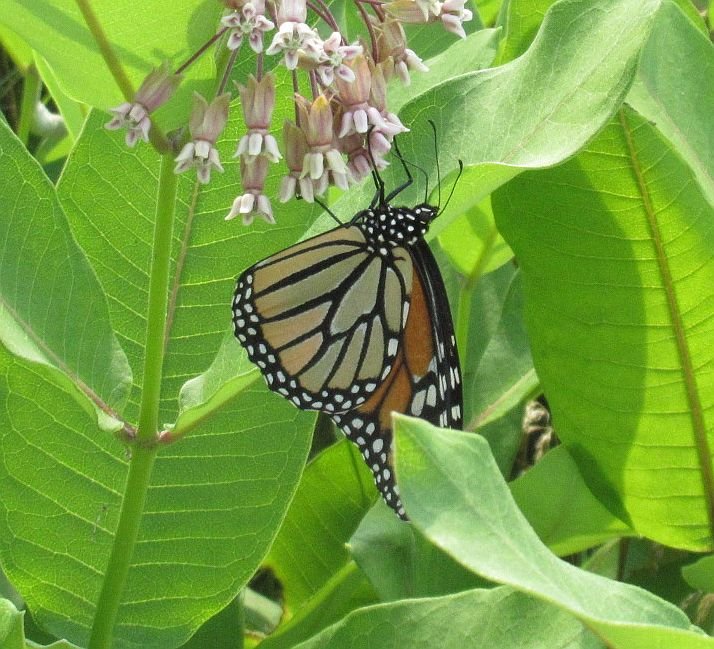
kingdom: Animalia
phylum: Arthropoda
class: Insecta
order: Lepidoptera
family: Nymphalidae
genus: Danaus
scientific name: Danaus plexippus
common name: Monarch
